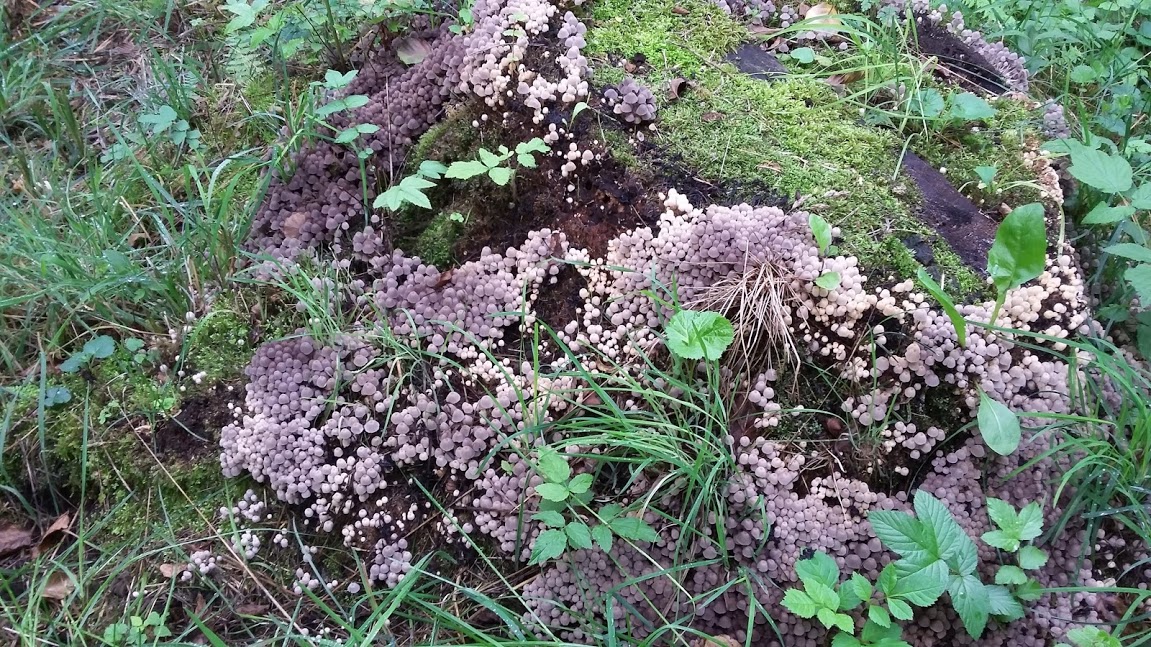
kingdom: Fungi
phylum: Basidiomycota
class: Agaricomycetes
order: Agaricales
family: Psathyrellaceae
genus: Coprinellus
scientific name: Coprinellus disseminatus
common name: bredsået blækhat
